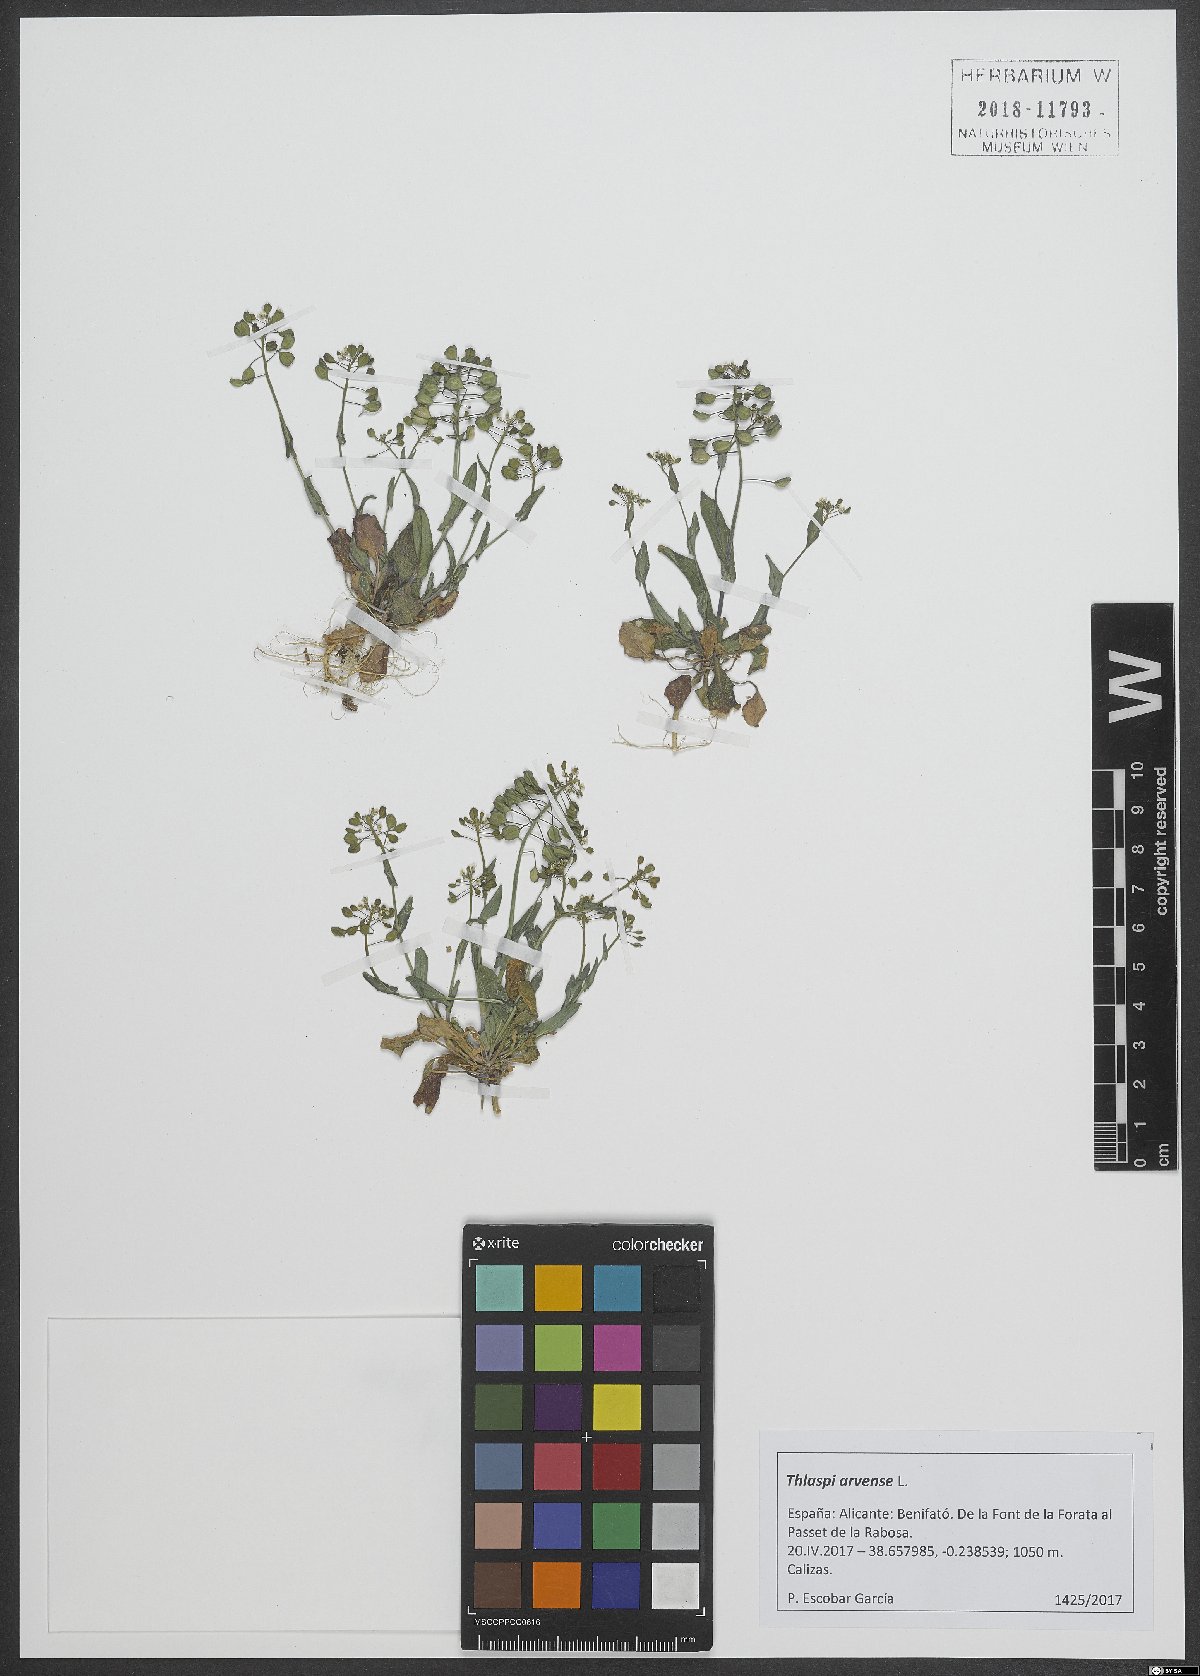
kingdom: Plantae
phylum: Tracheophyta
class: Magnoliopsida
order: Brassicales
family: Brassicaceae
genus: Thlaspi
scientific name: Thlaspi arvense
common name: Field pennycress
